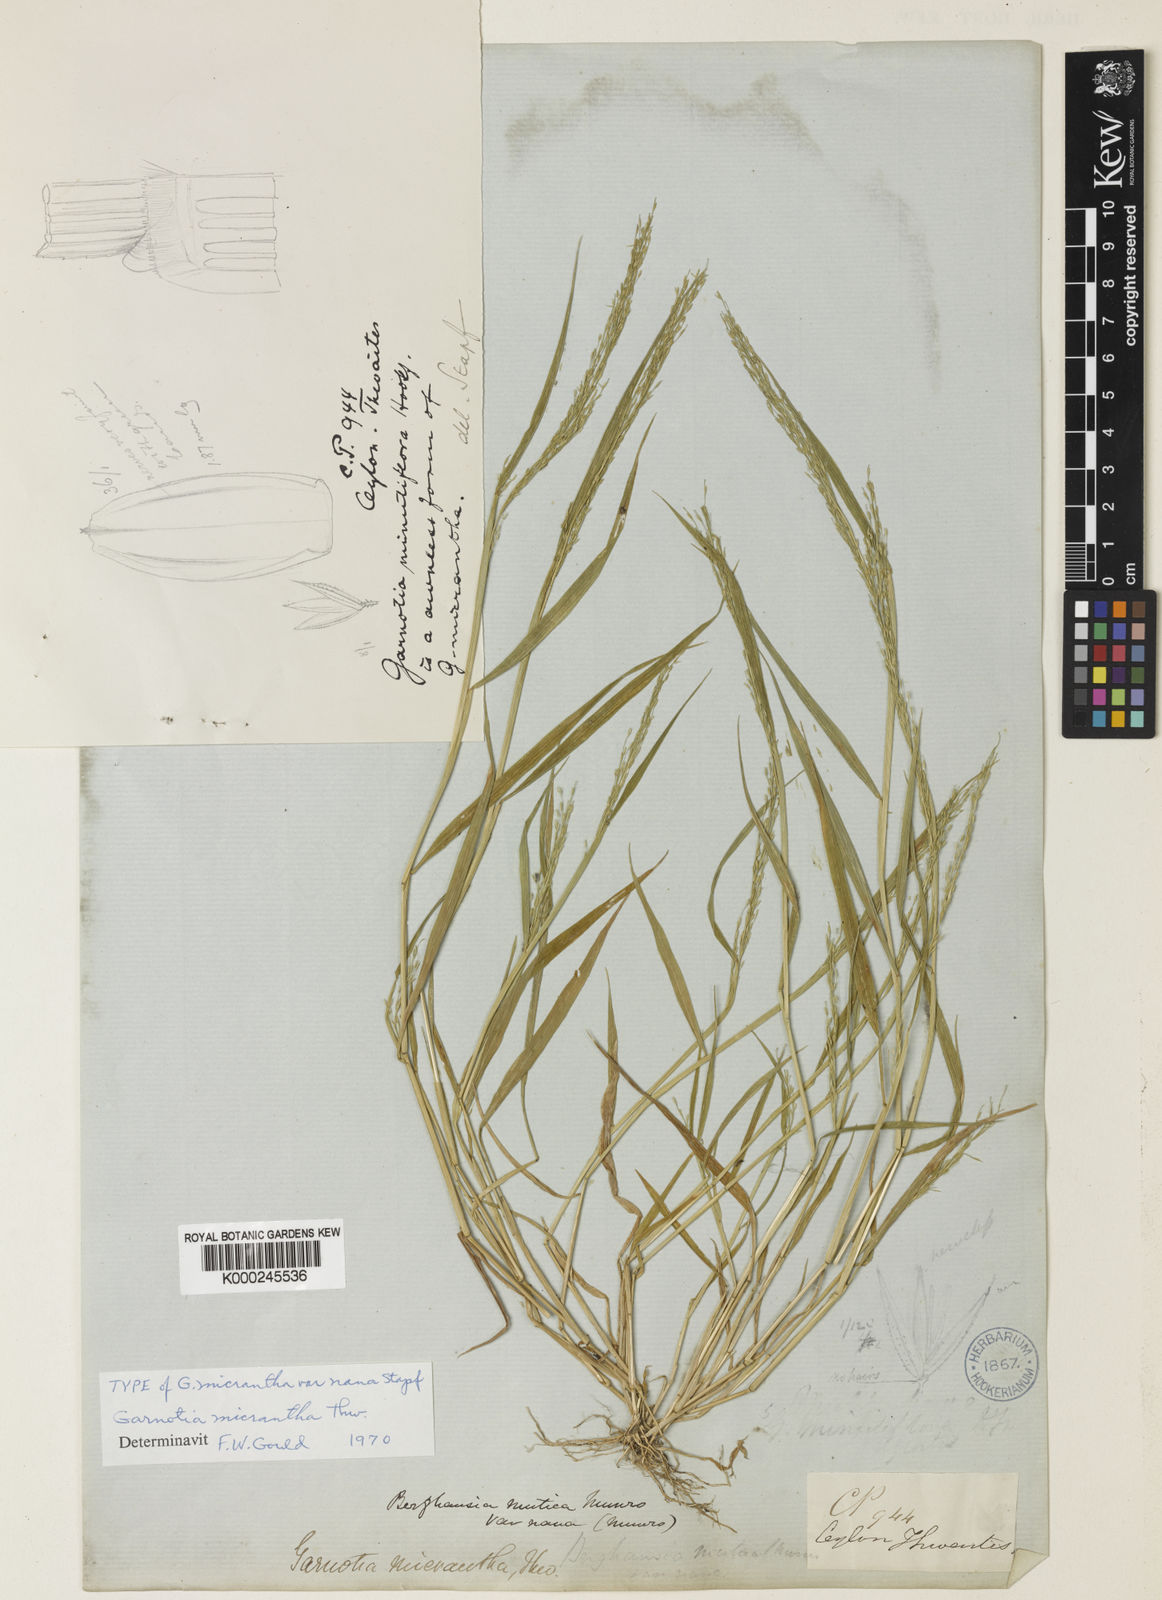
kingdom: Plantae
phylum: Tracheophyta
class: Liliopsida
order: Poales
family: Poaceae
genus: Garnotia
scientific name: Garnotia micrantha
